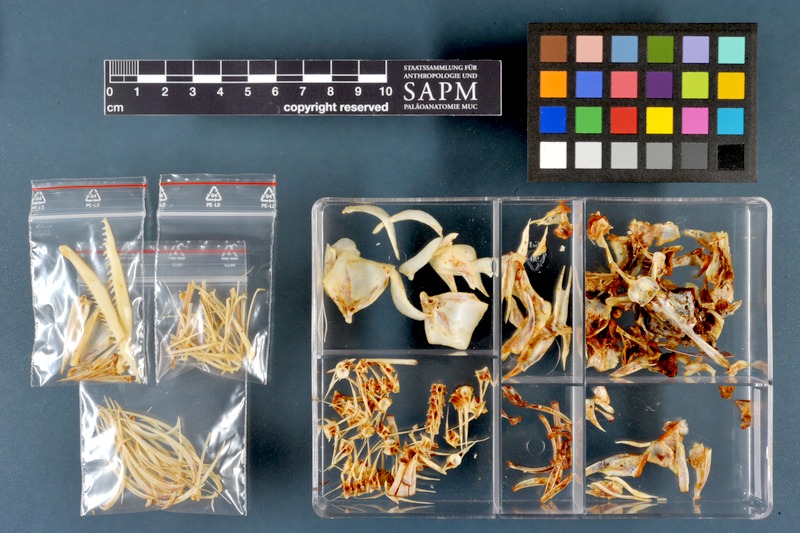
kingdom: Animalia
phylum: Chordata
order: Cypriniformes
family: Cyprinidae
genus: Capoeta
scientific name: Capoeta damascina
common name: Levantine scraper
